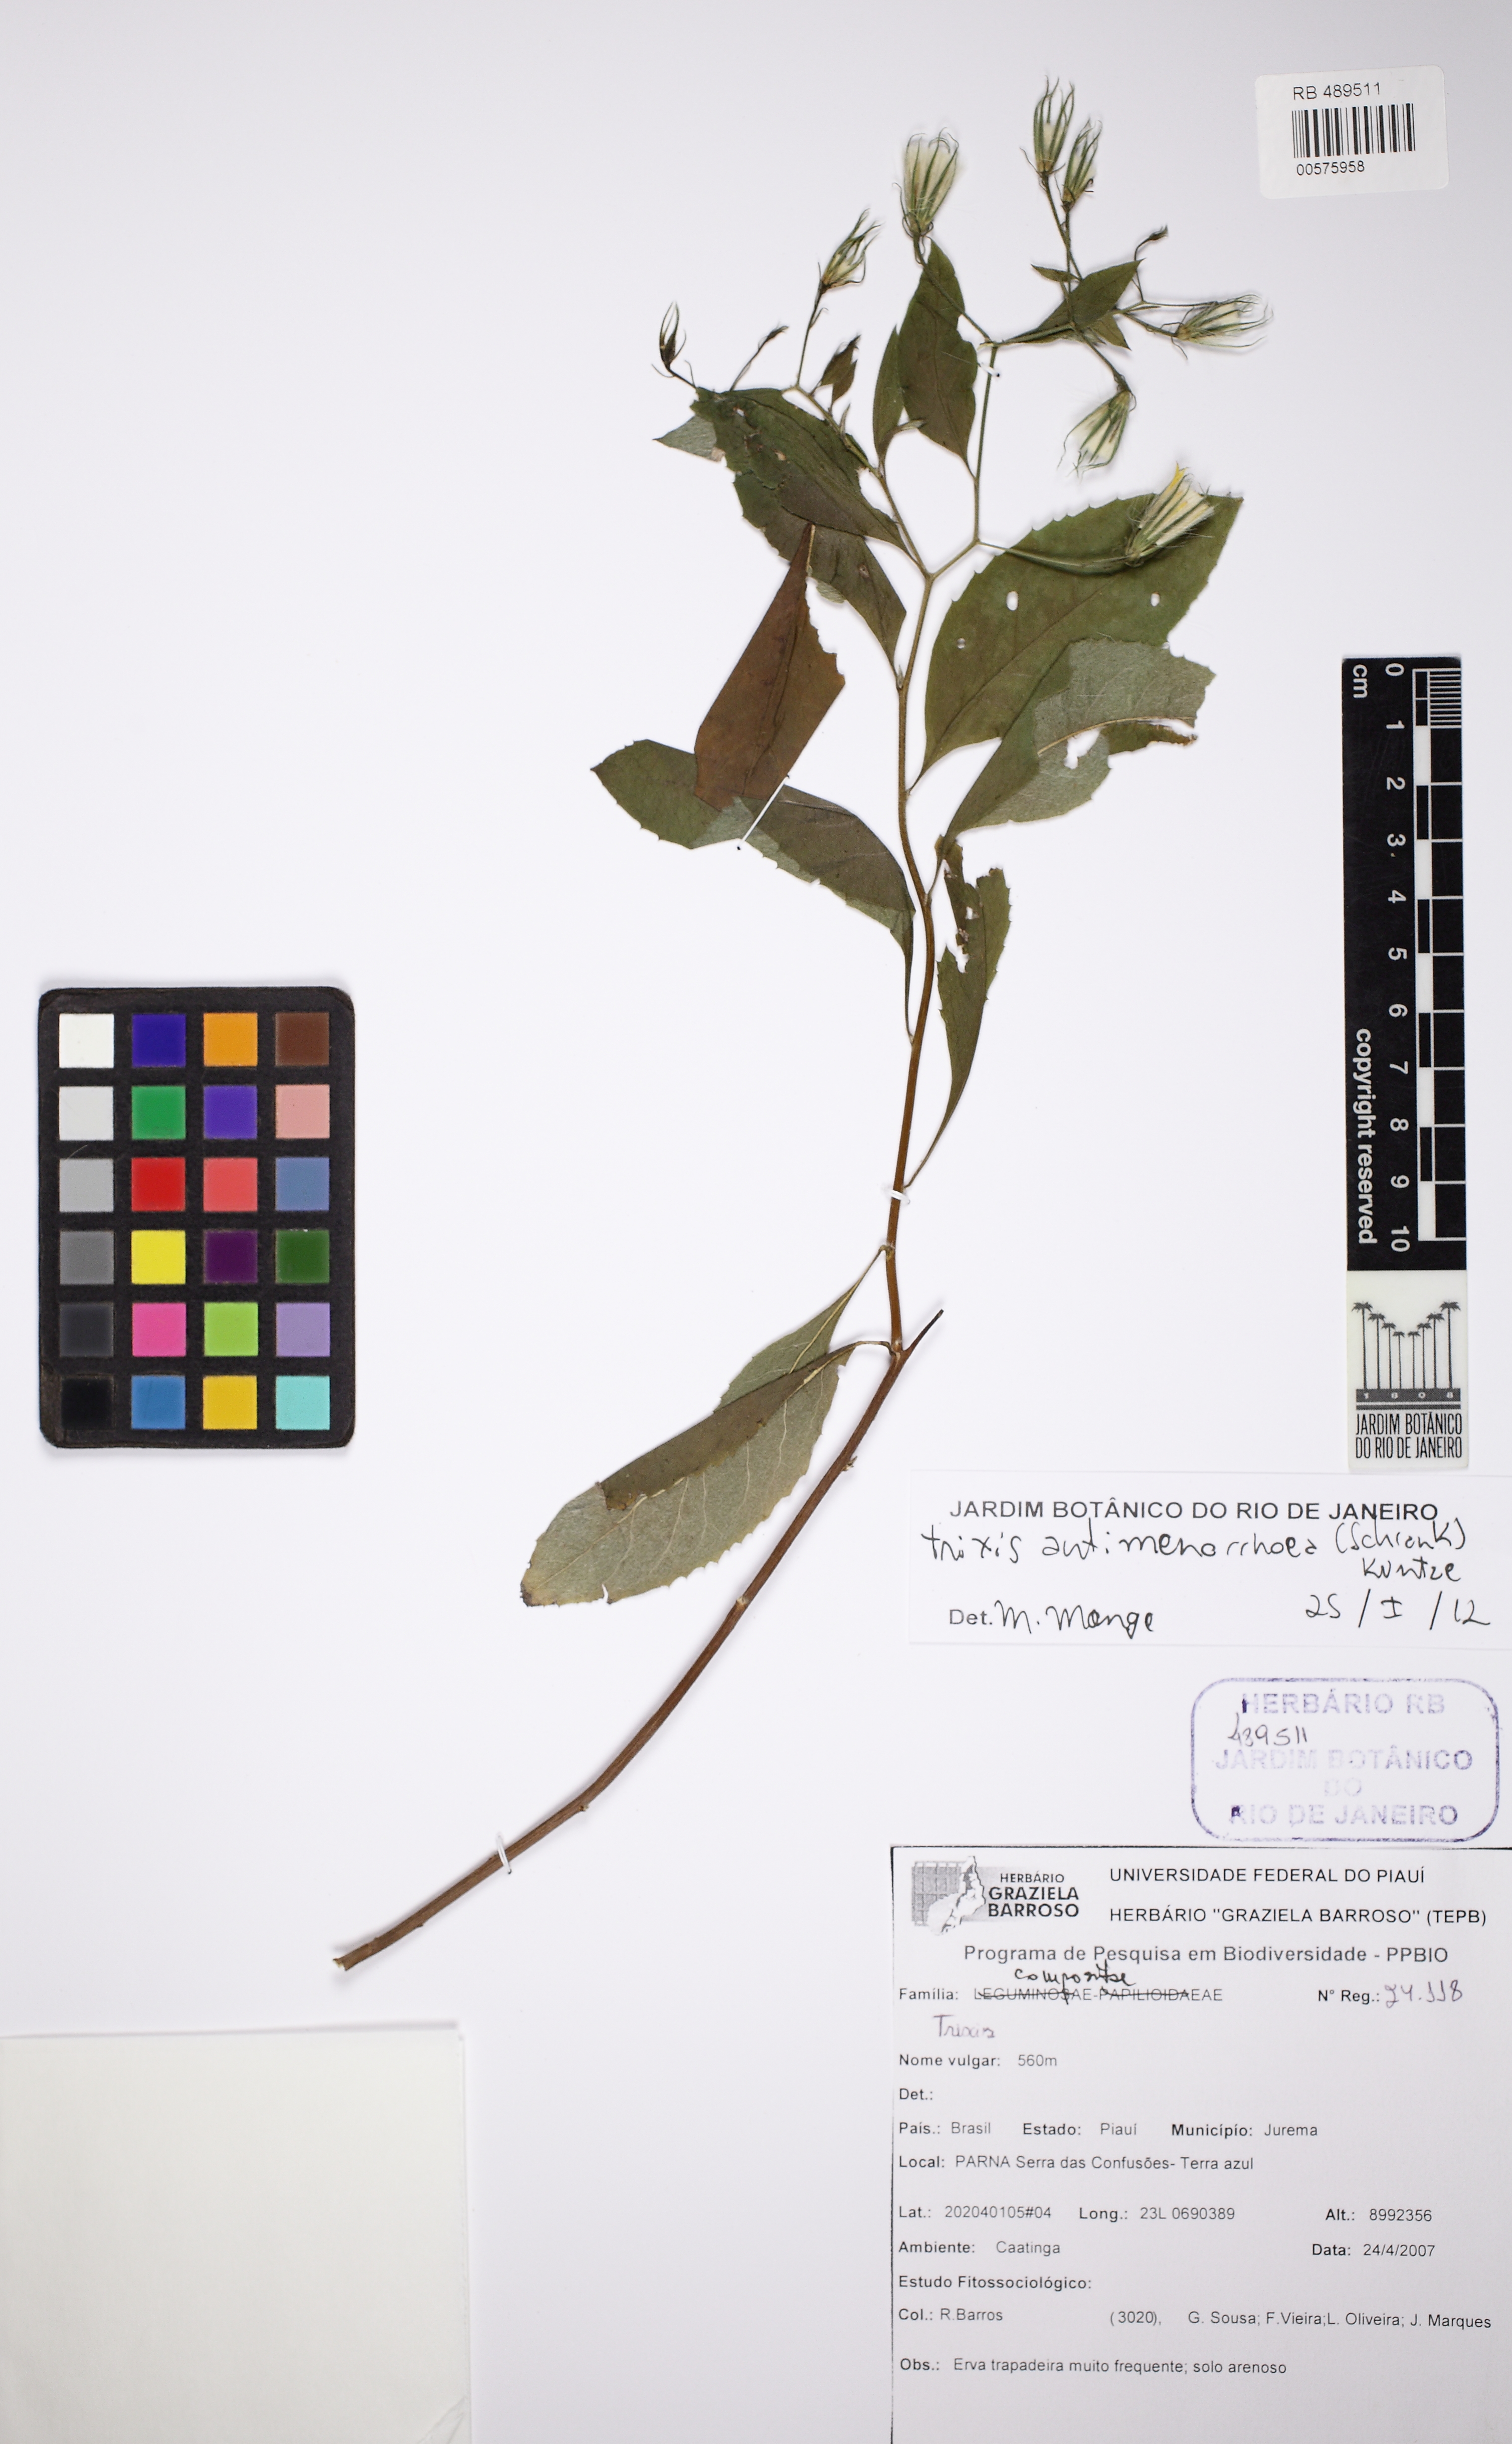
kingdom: Plantae
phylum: Tracheophyta
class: Magnoliopsida
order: Asterales
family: Asteraceae
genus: Trixis
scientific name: Trixis divaricata
